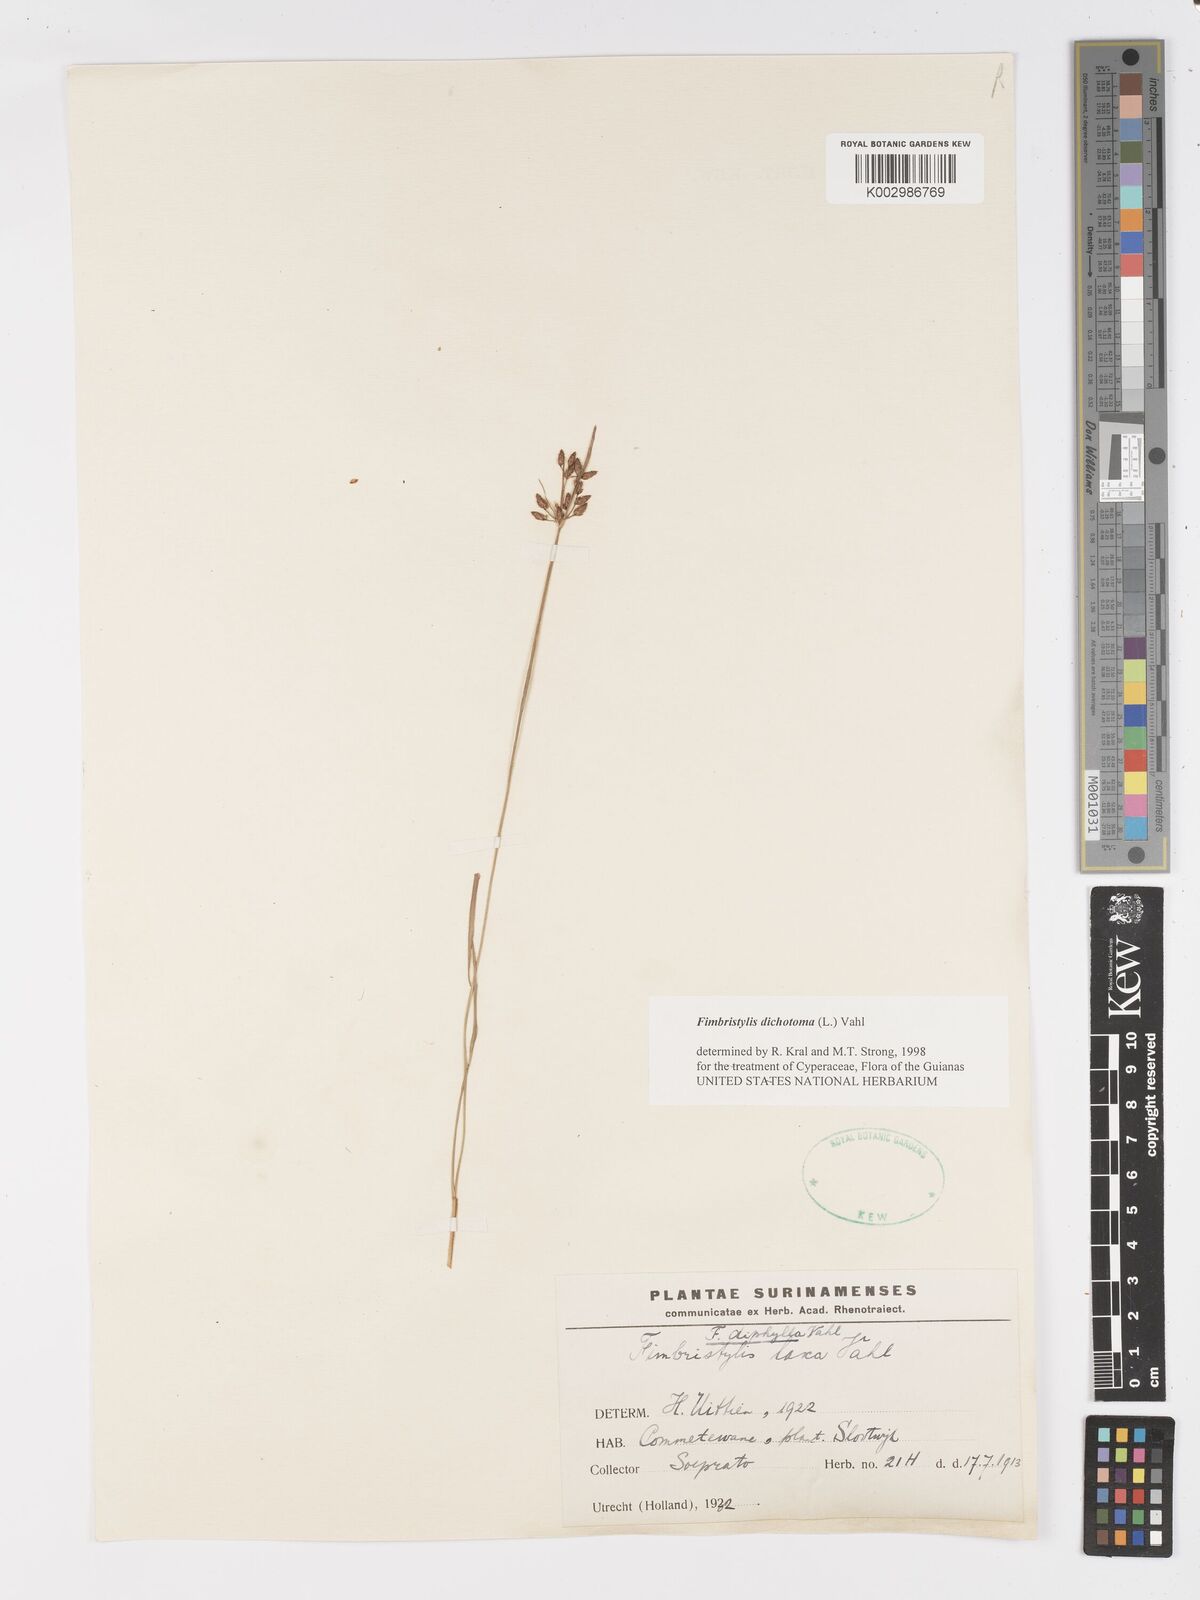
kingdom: Plantae
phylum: Tracheophyta
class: Liliopsida
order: Poales
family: Cyperaceae
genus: Fimbristylis
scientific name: Fimbristylis dichotoma
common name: Forked fimbry
